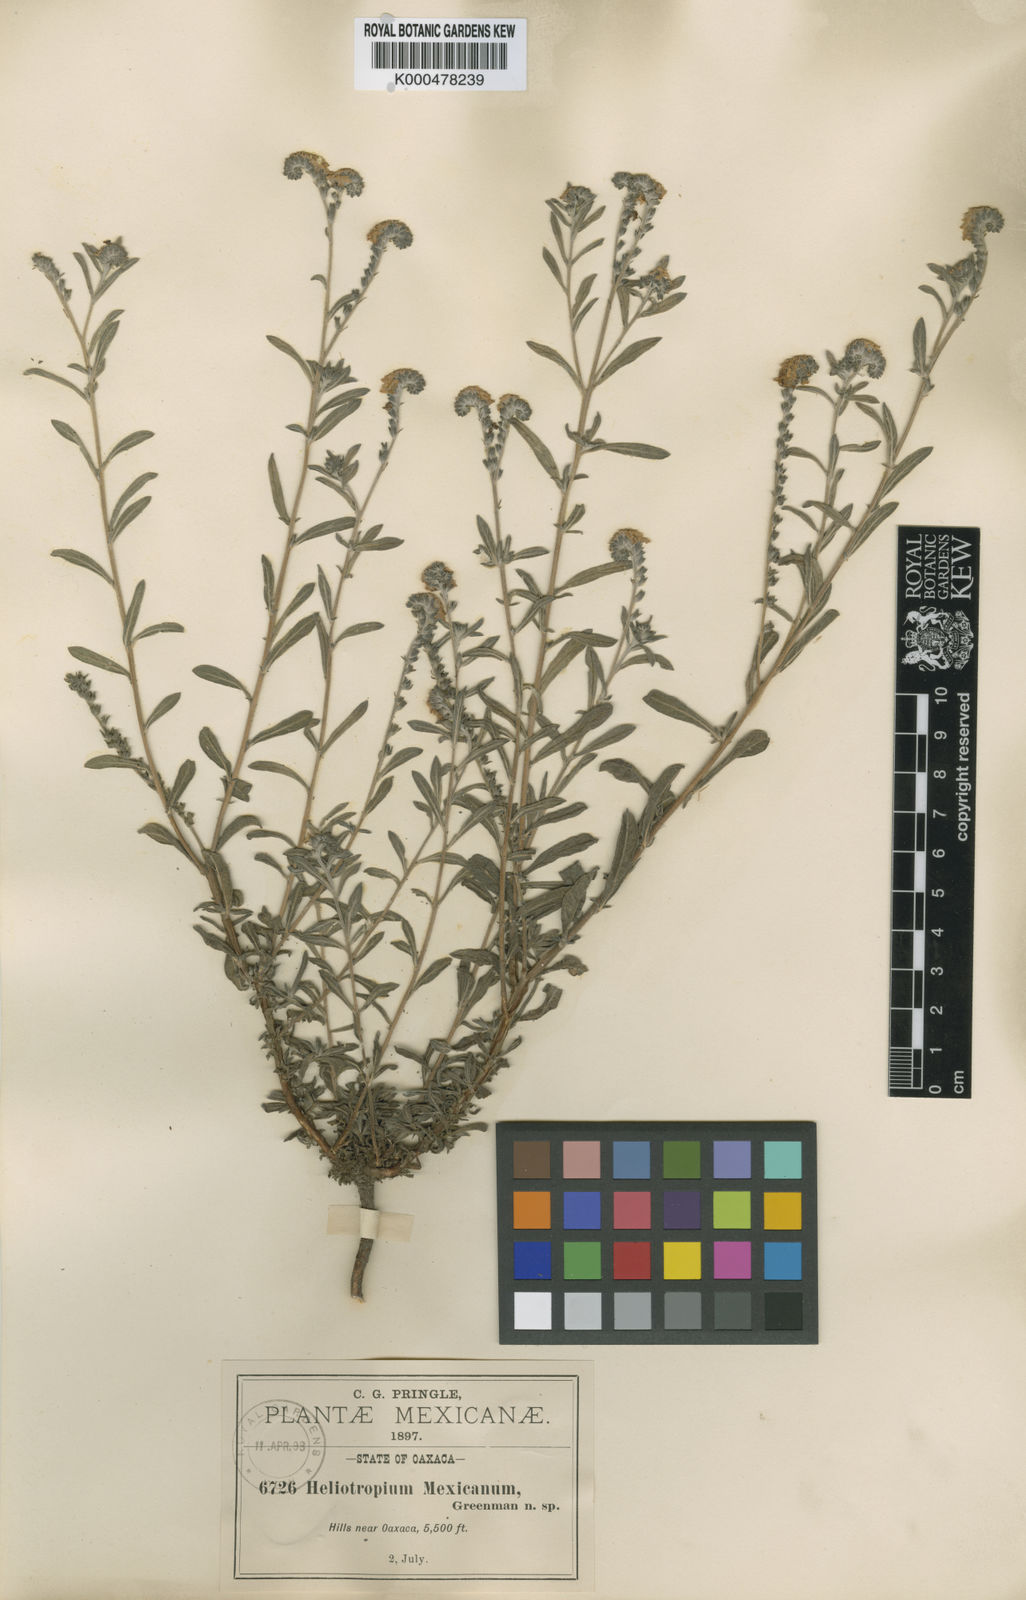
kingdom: Plantae
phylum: Tracheophyta
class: Magnoliopsida
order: Boraginales
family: Heliotropiaceae
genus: Euploca
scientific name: Euploca humilis
